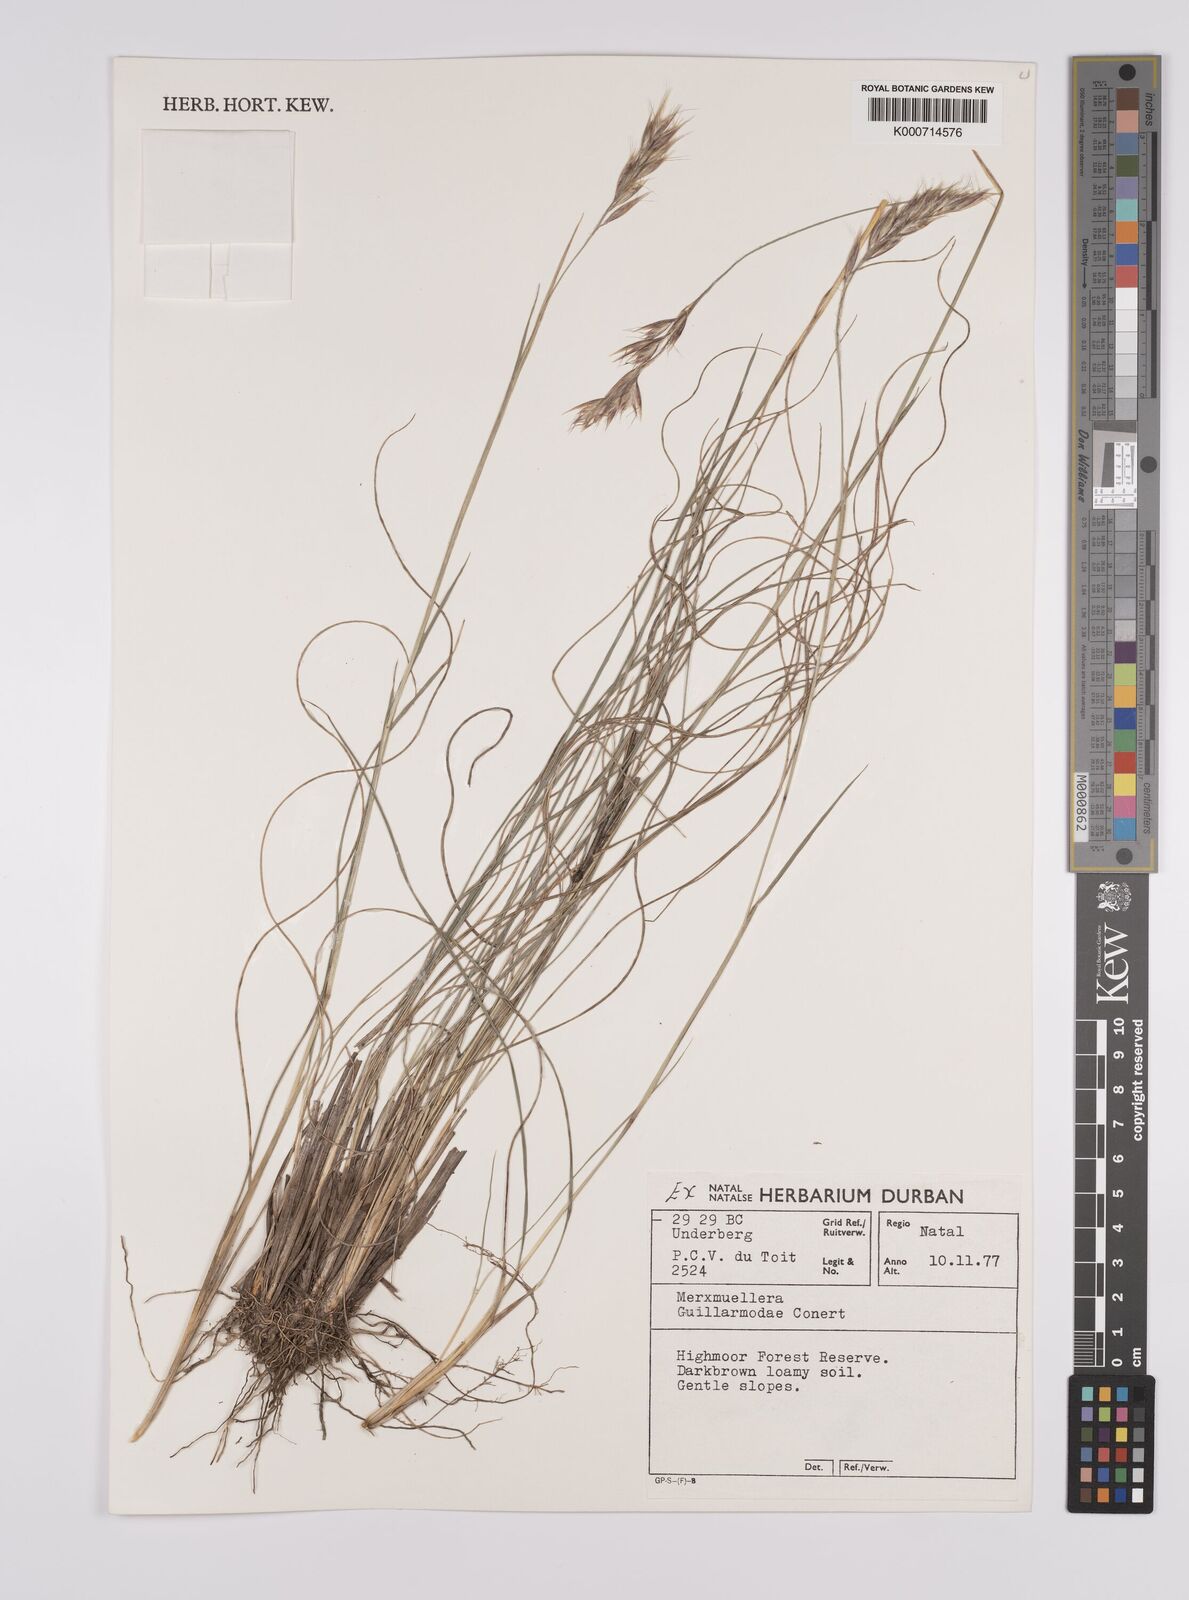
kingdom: Plantae
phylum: Tracheophyta
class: Liliopsida
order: Poales
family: Poaceae
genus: Rytidosperma
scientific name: Rytidosperma
